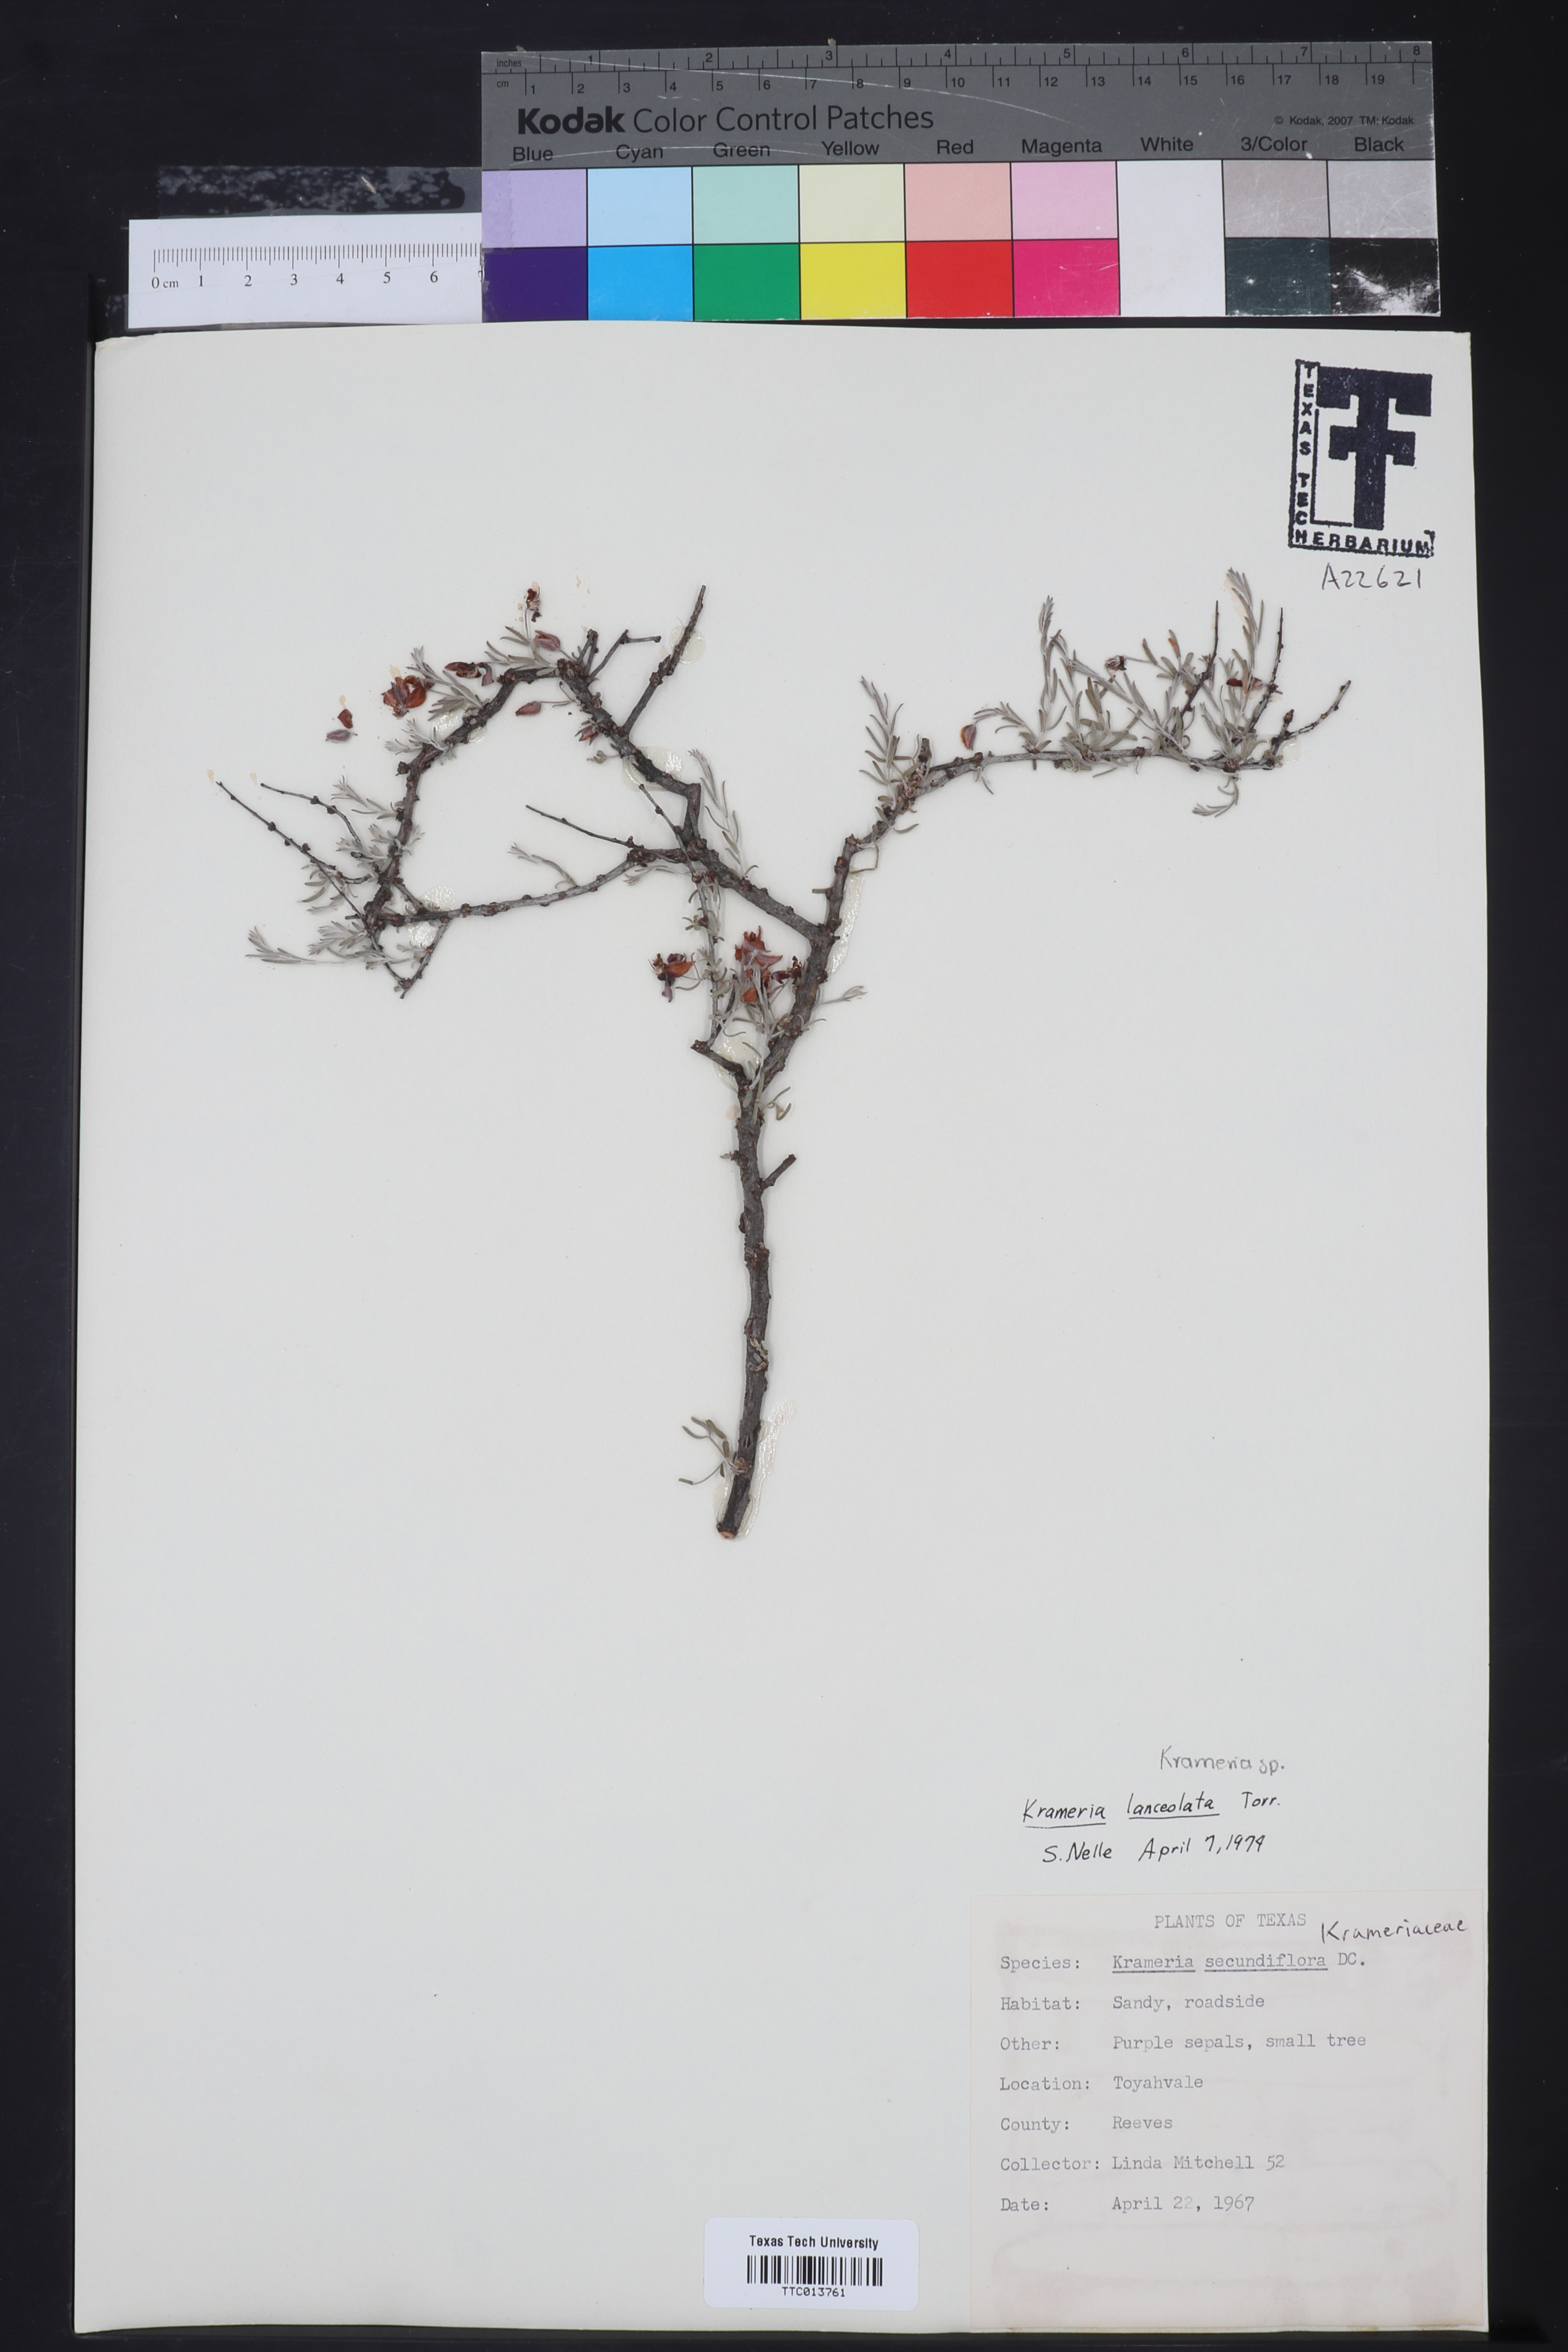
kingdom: Plantae
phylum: Tracheophyta
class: Magnoliopsida
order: Zygophyllales
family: Krameriaceae
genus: Krameria
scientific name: Krameria secundiflora
